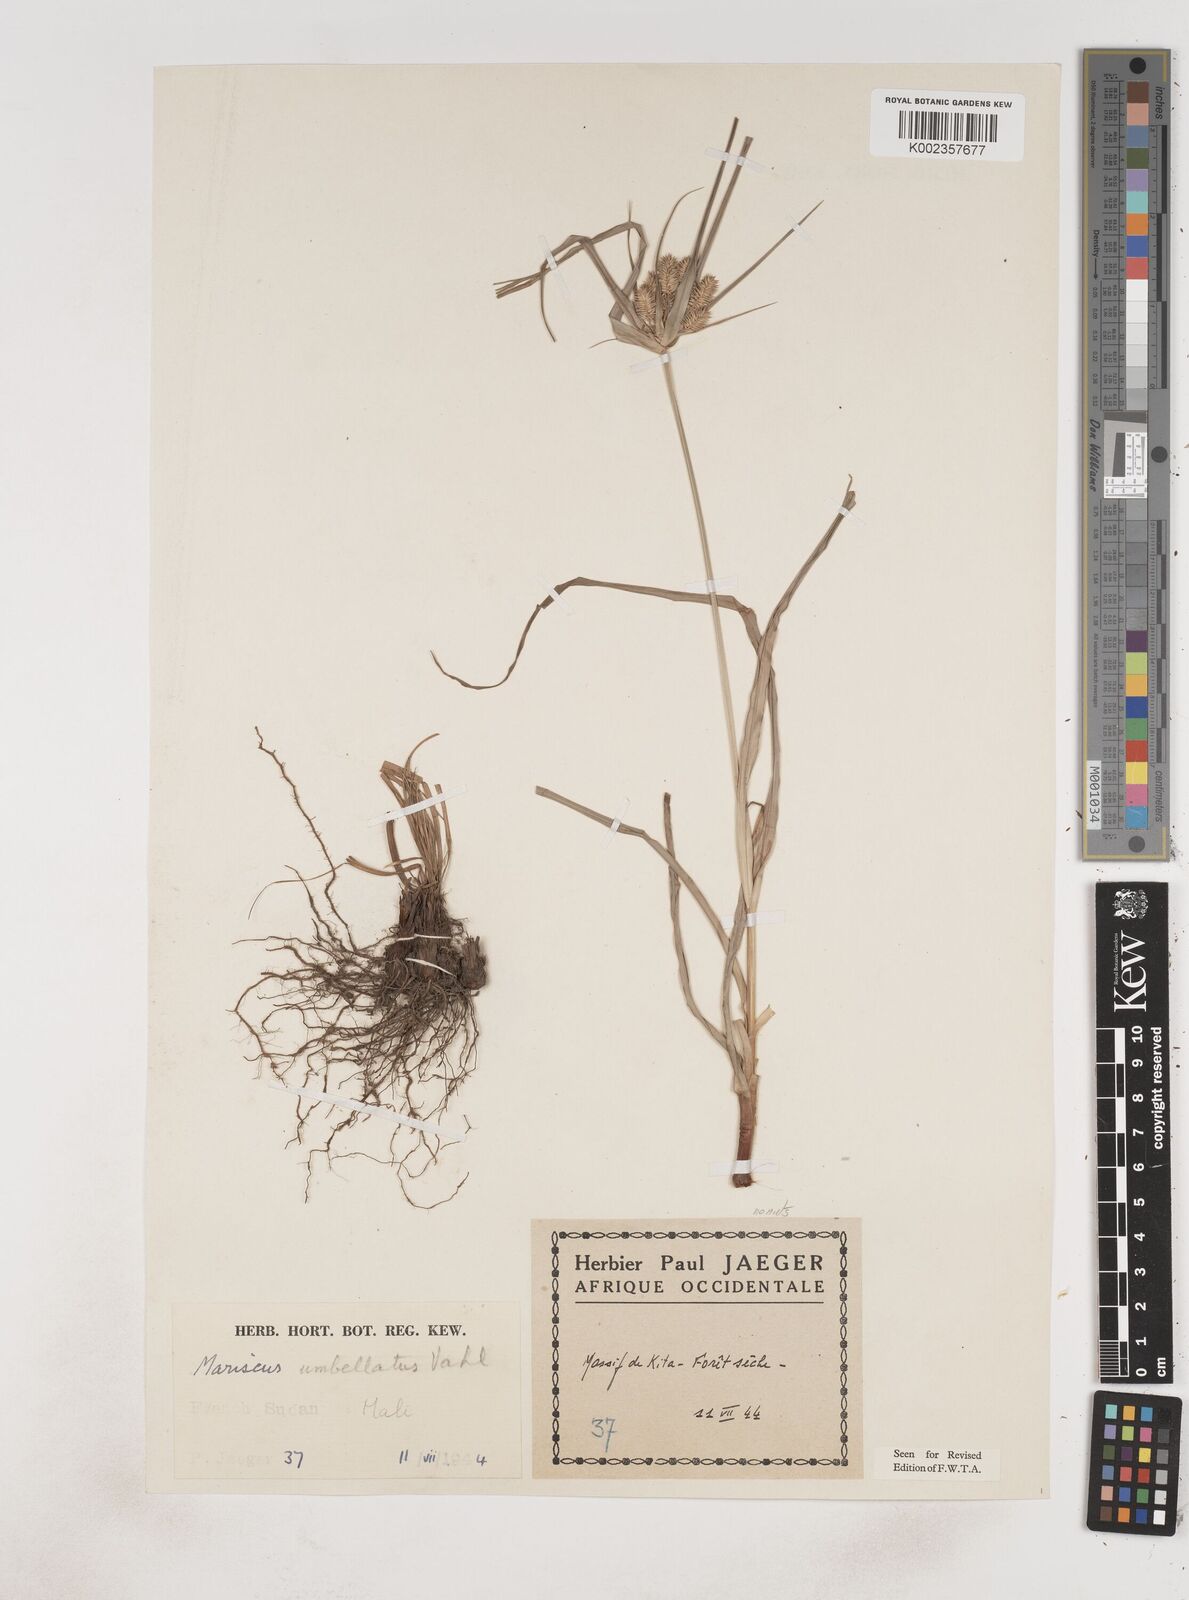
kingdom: Plantae
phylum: Tracheophyta
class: Liliopsida
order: Poales
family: Cyperaceae
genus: Cyperus
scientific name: Cyperus sublimis
